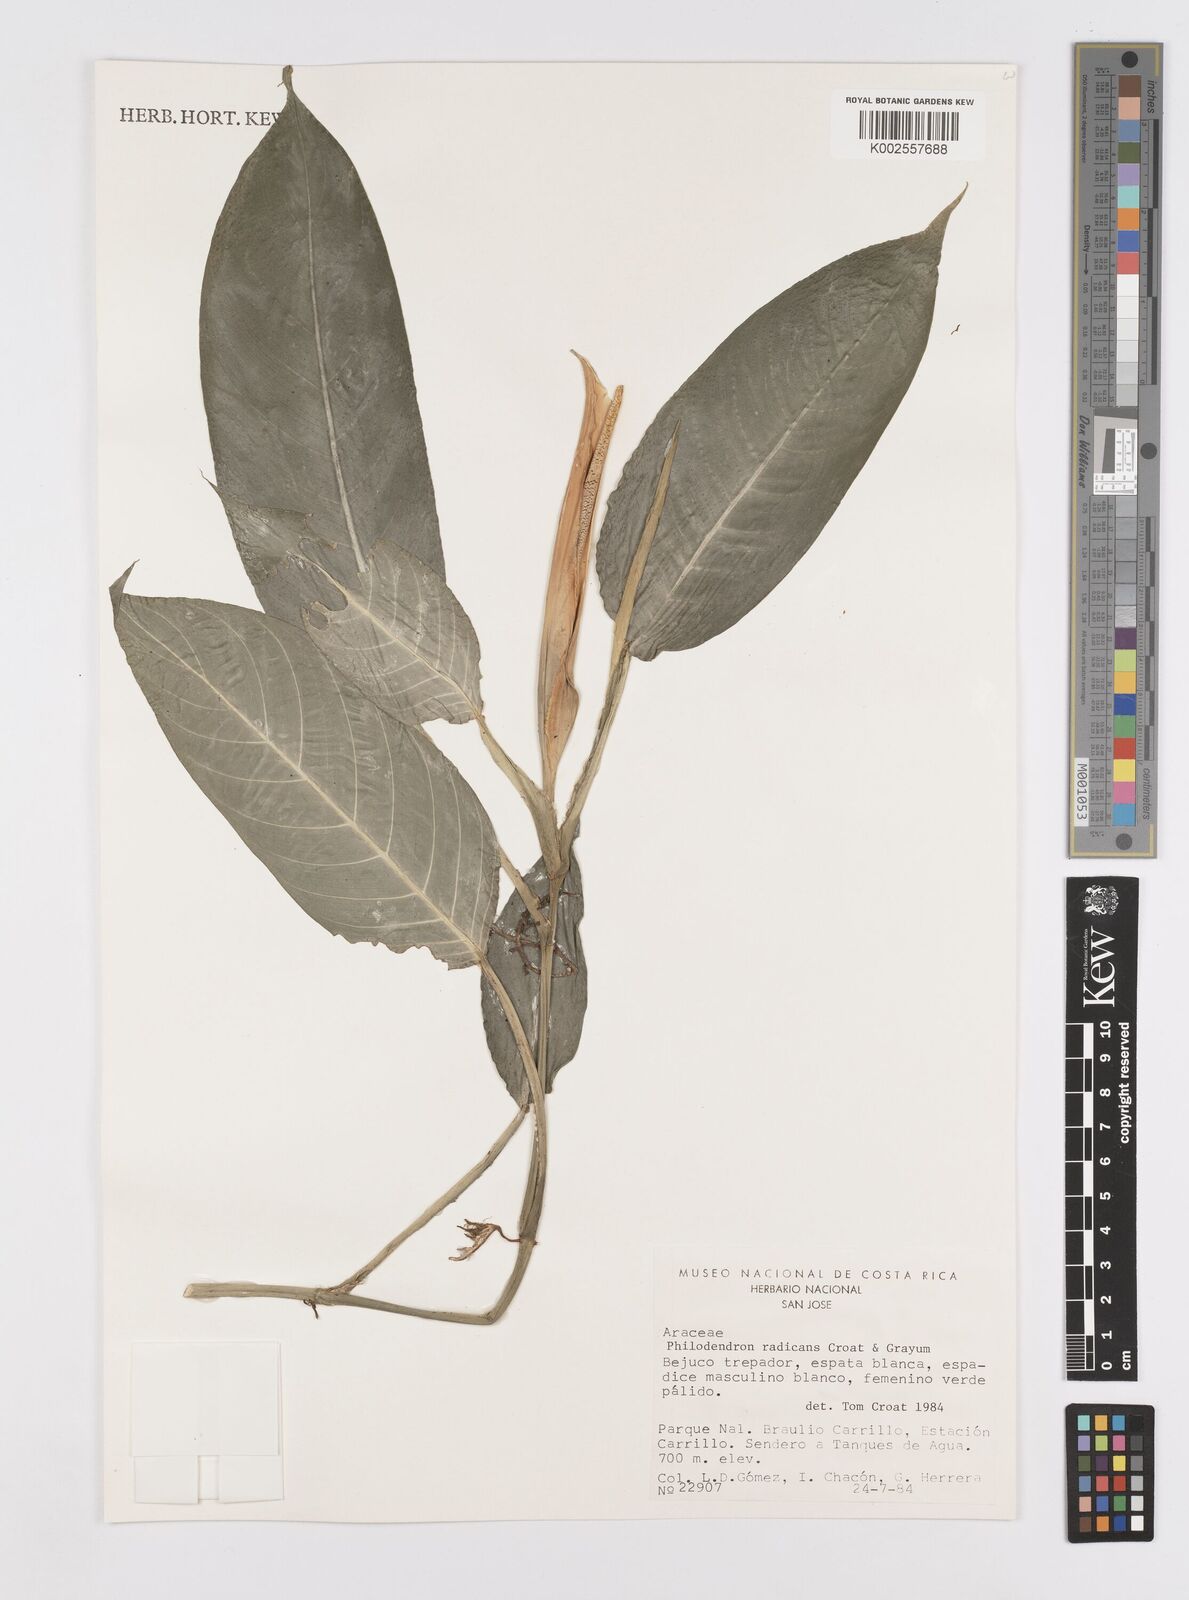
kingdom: Plantae
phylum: Tracheophyta
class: Liliopsida
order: Alismatales
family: Araceae
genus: Philodendron
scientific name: Philodendron
